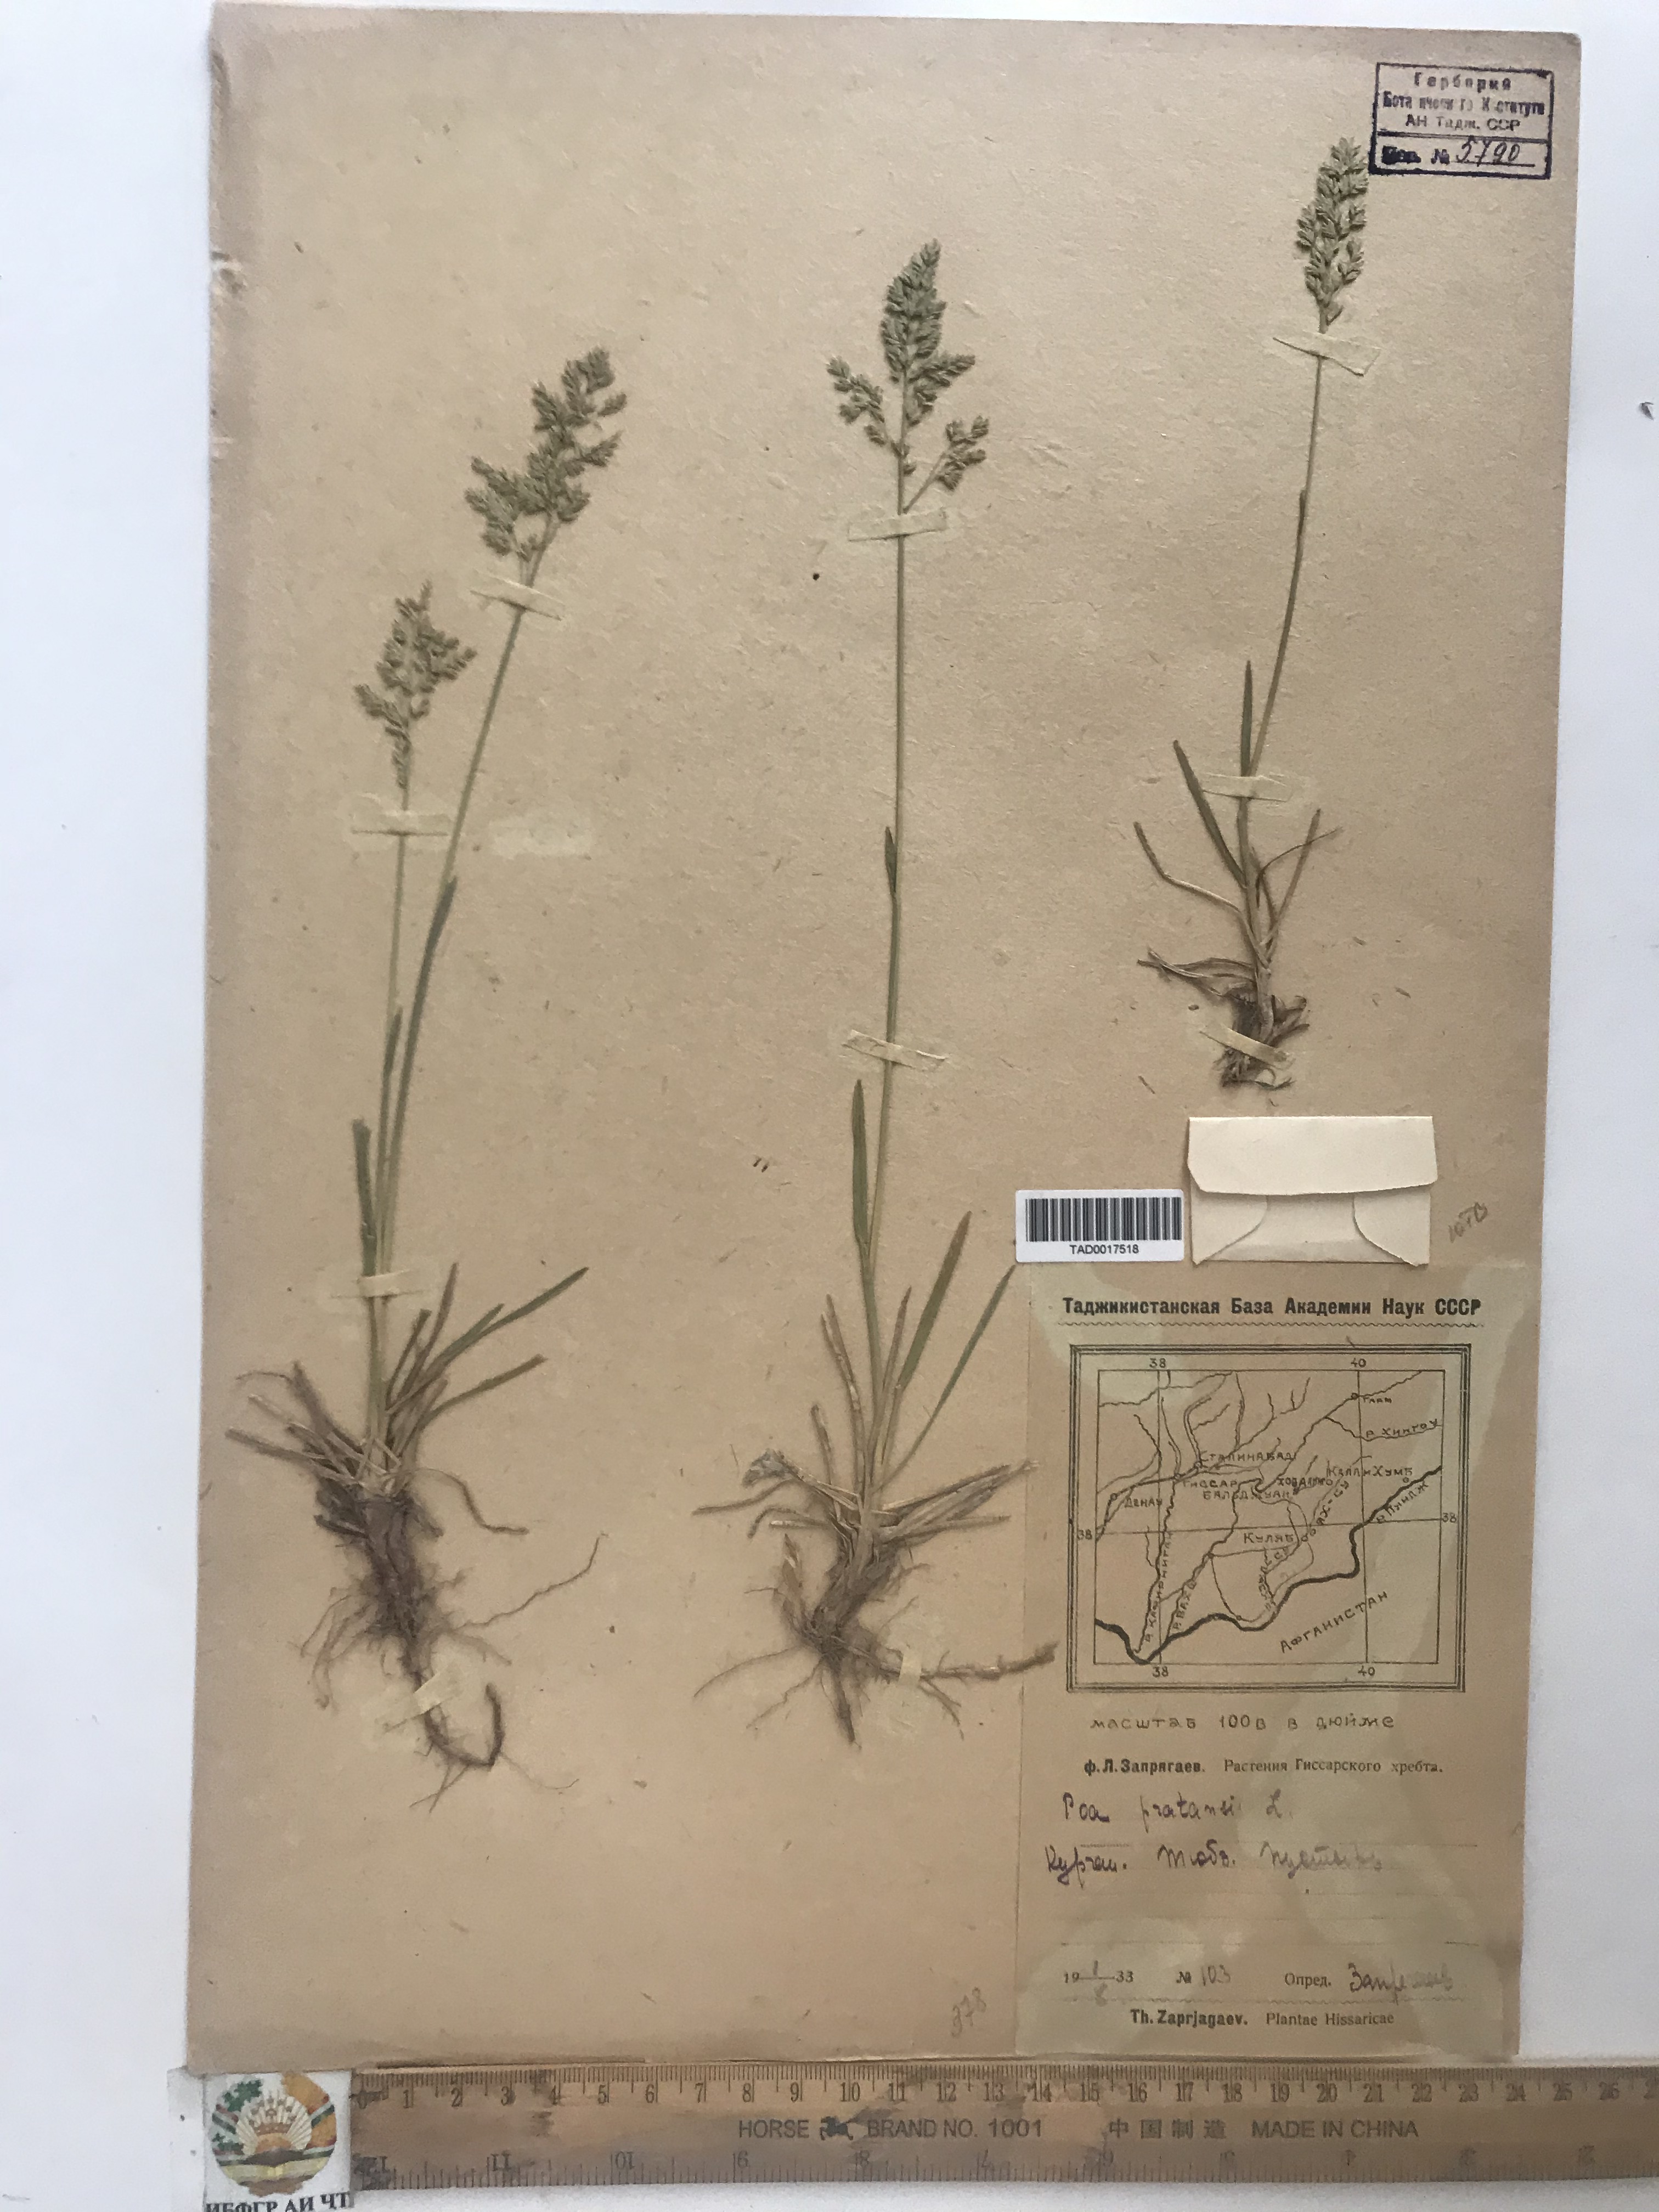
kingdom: Plantae
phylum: Tracheophyta
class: Liliopsida
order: Poales
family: Poaceae
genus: Poa
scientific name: Poa pratensis
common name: Kentucky bluegrass
